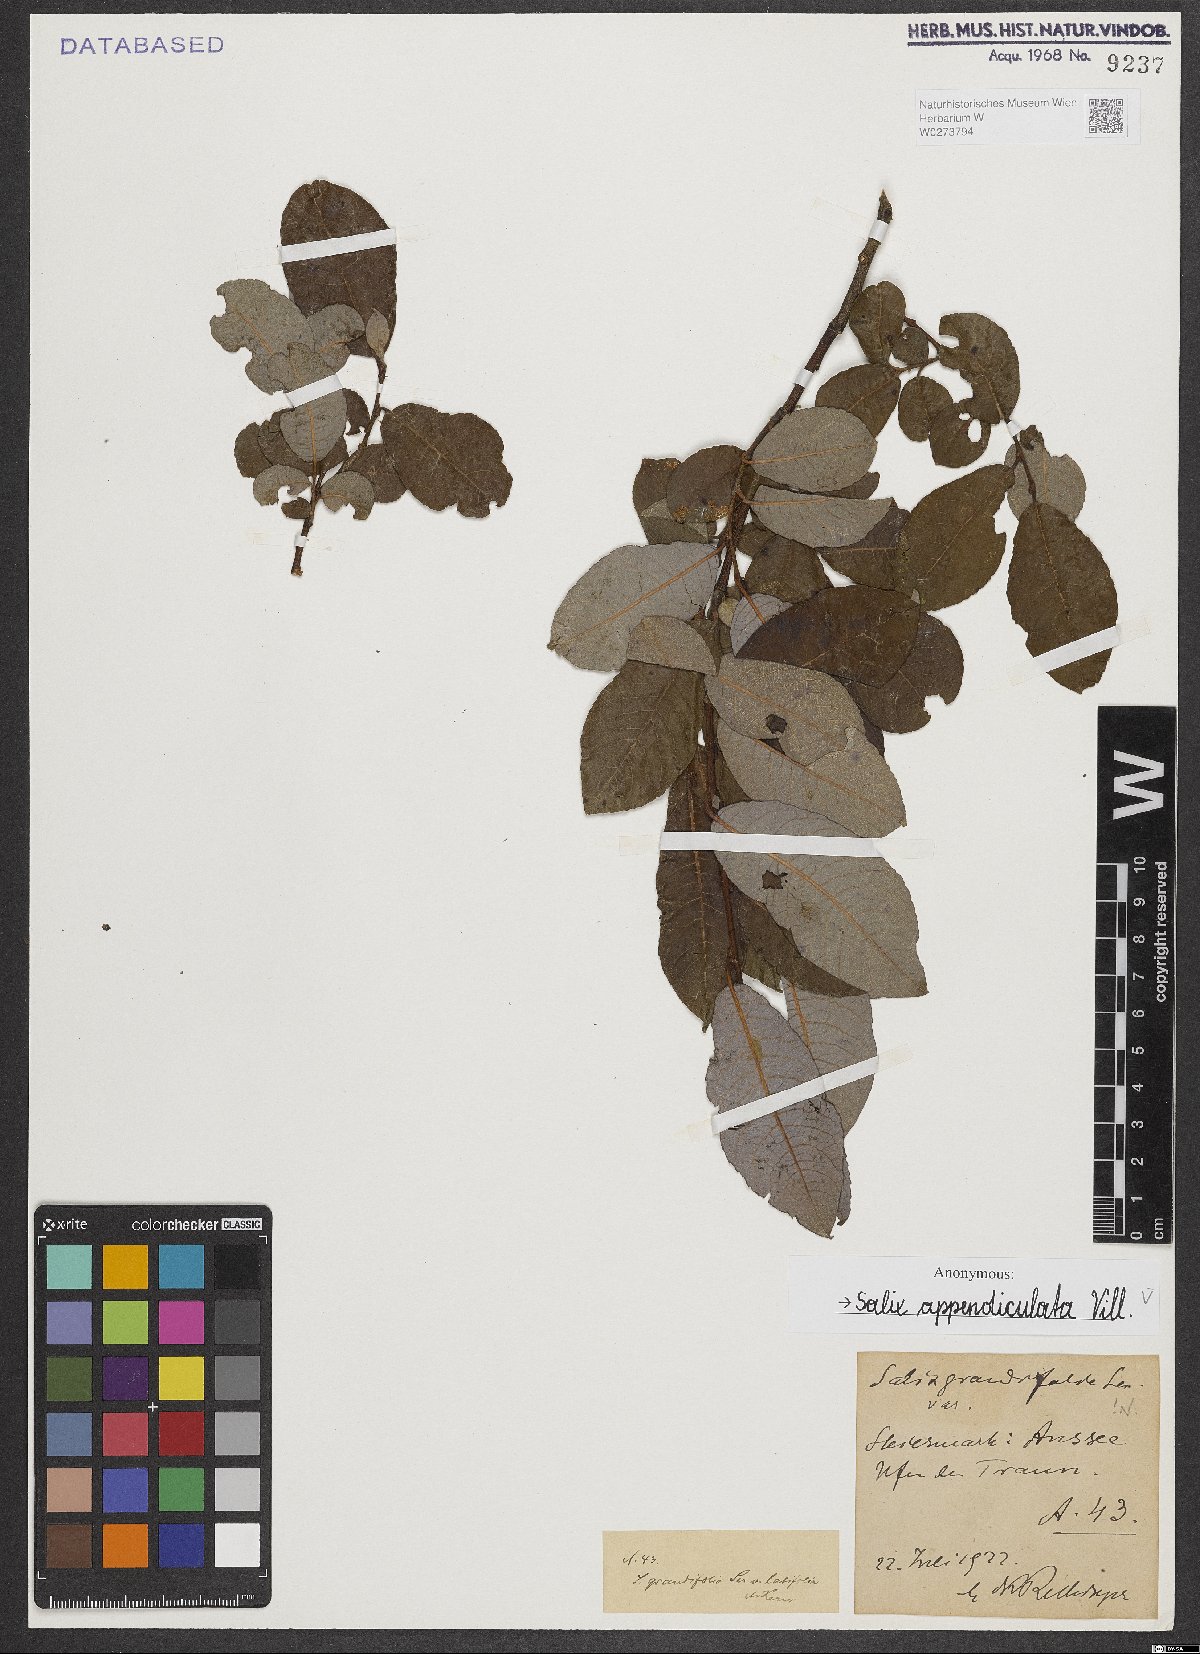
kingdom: Plantae
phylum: Tracheophyta
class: Magnoliopsida
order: Malpighiales
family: Salicaceae
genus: Salix
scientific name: Salix appendiculata
